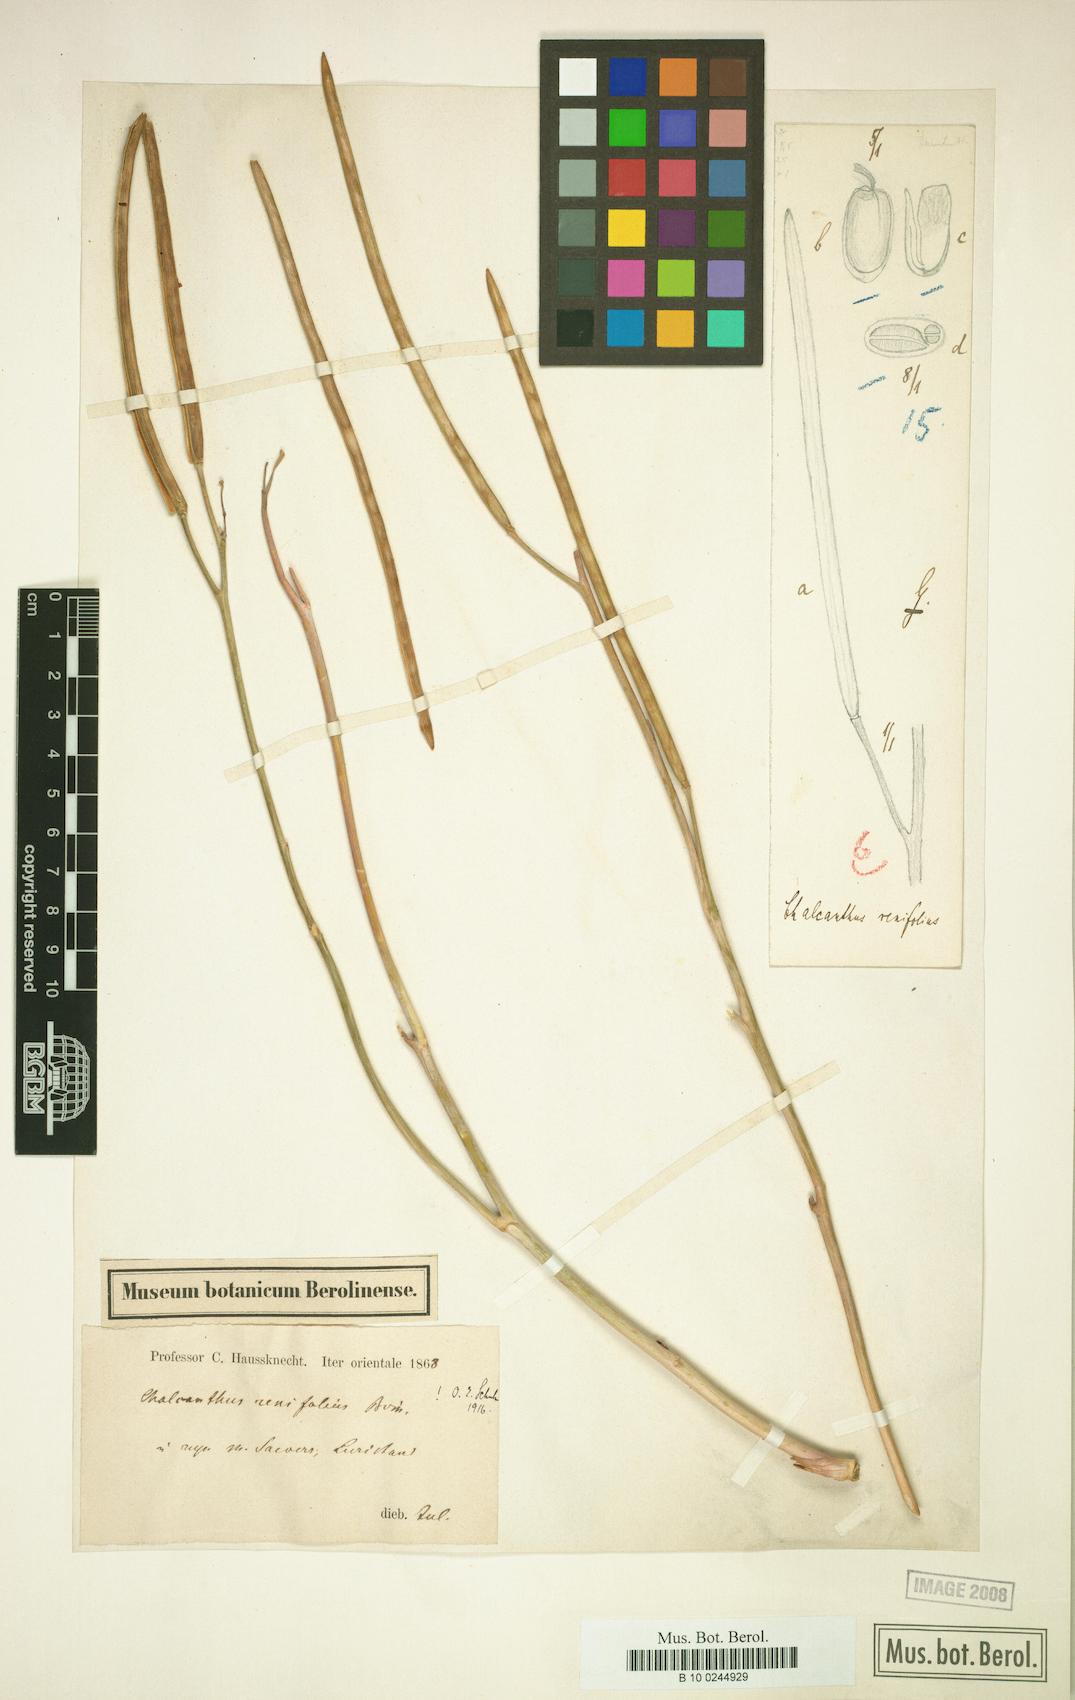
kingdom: Plantae
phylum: Tracheophyta
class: Magnoliopsida
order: Brassicales
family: Brassicaceae
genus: Eutrema
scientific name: Eutrema renifolium
